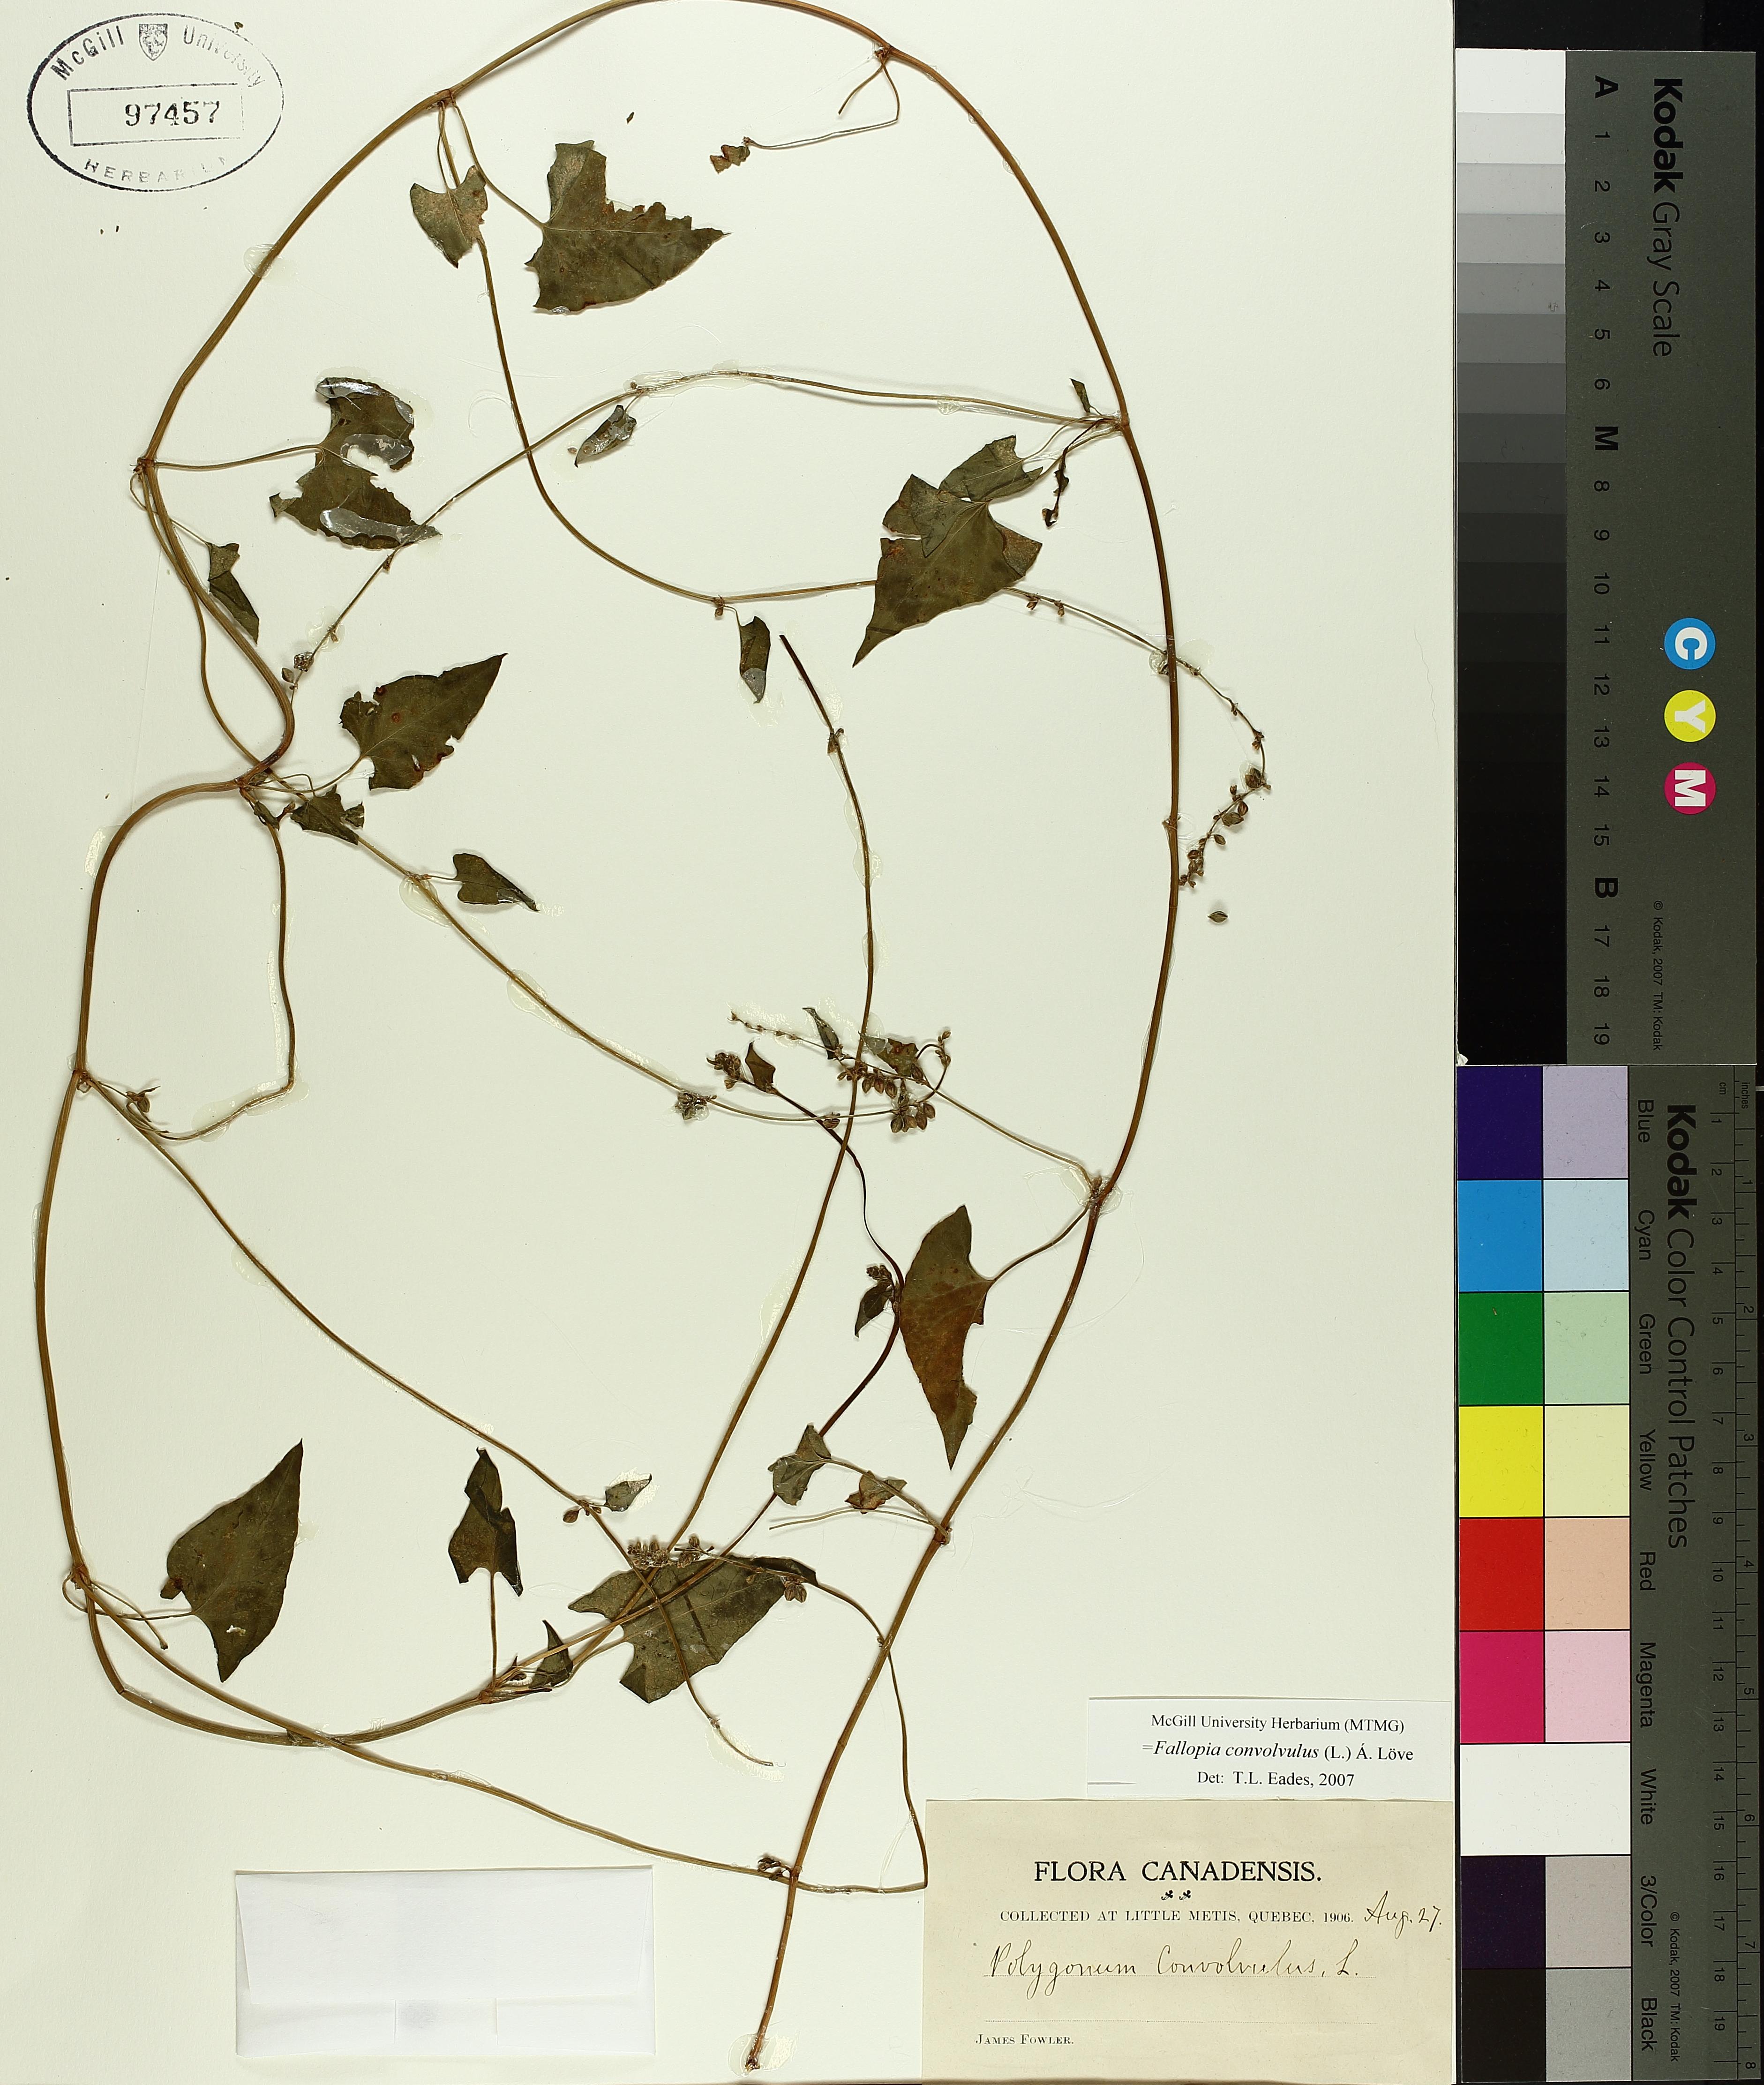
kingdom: Plantae
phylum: Tracheophyta
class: Magnoliopsida
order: Caryophyllales
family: Polygonaceae
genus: Fallopia
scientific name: Fallopia convolvulus
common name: Black bindweed
